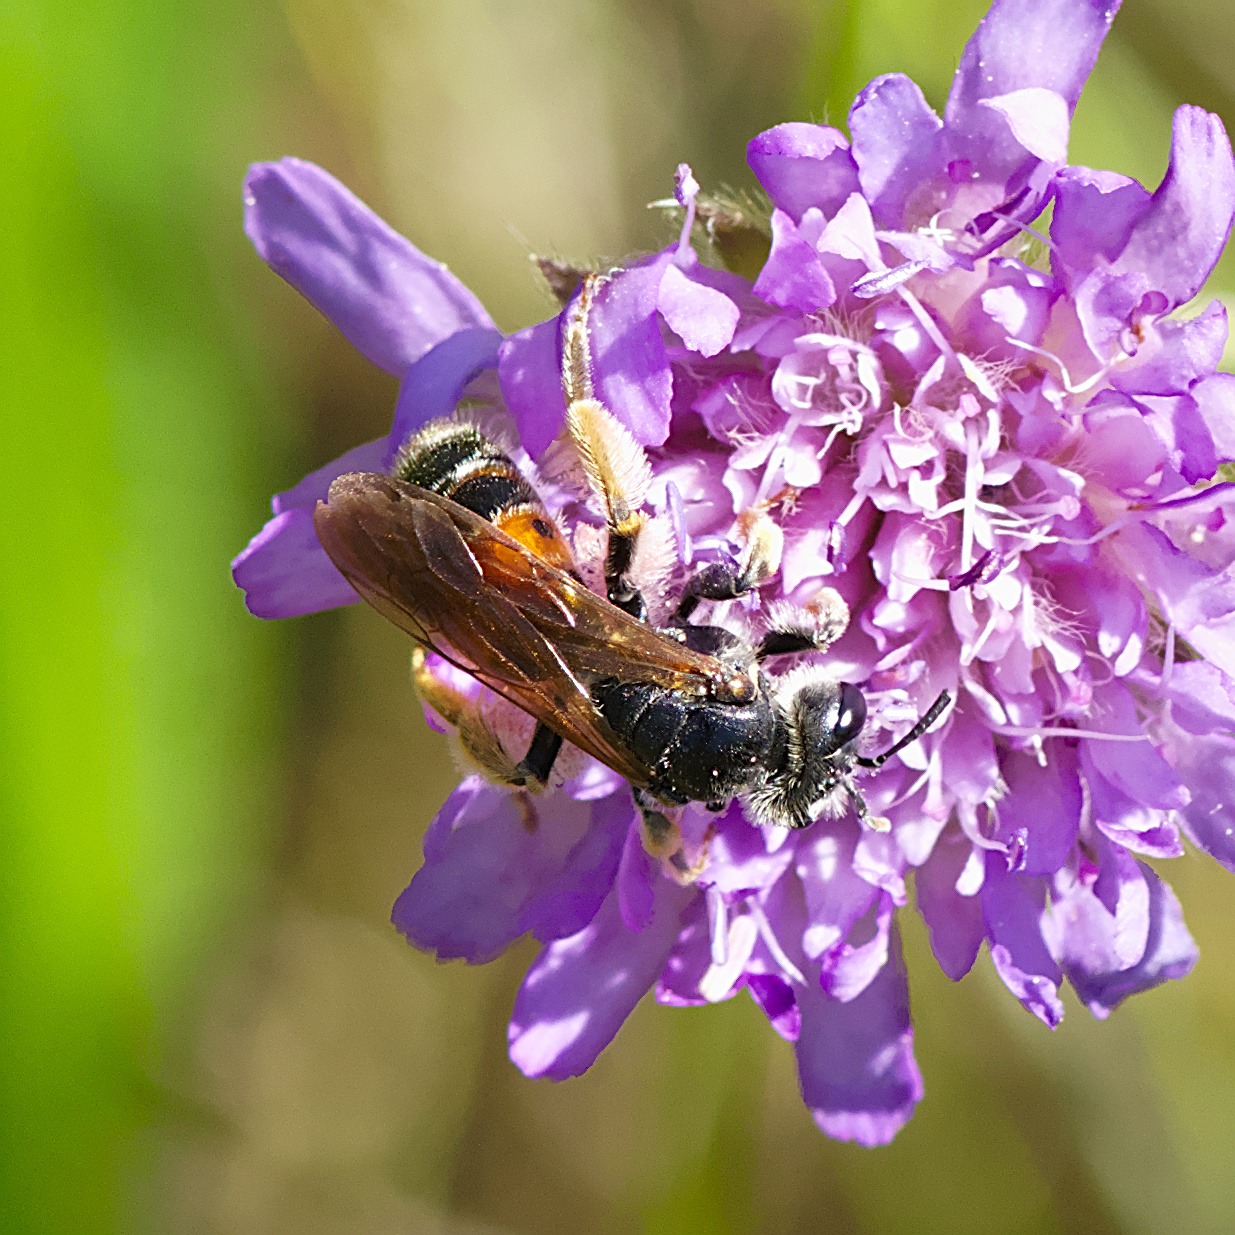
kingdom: Animalia
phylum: Arthropoda
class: Insecta
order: Hymenoptera
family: Andrenidae
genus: Andrena
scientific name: Andrena hattorfiana
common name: Blåhatjordbi
